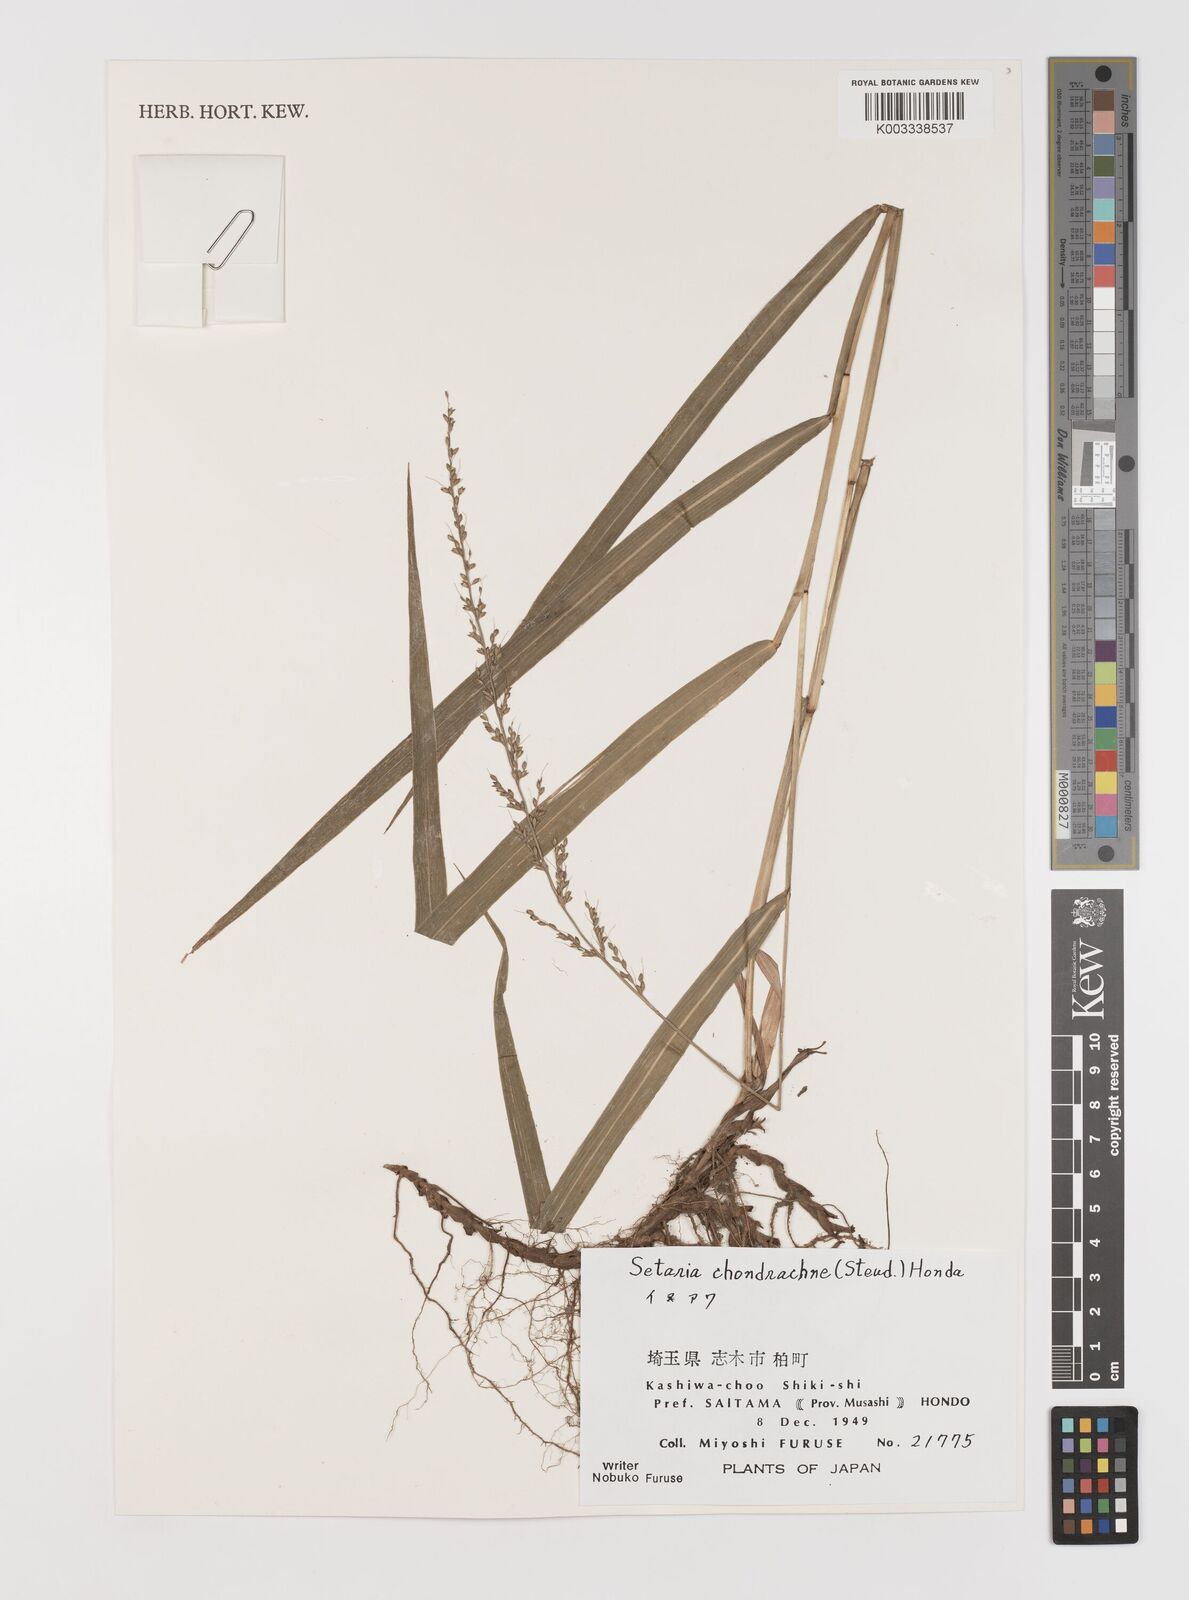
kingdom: Plantae
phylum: Tracheophyta
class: Liliopsida
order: Poales
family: Poaceae
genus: Setaria
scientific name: Setaria chondrachne
